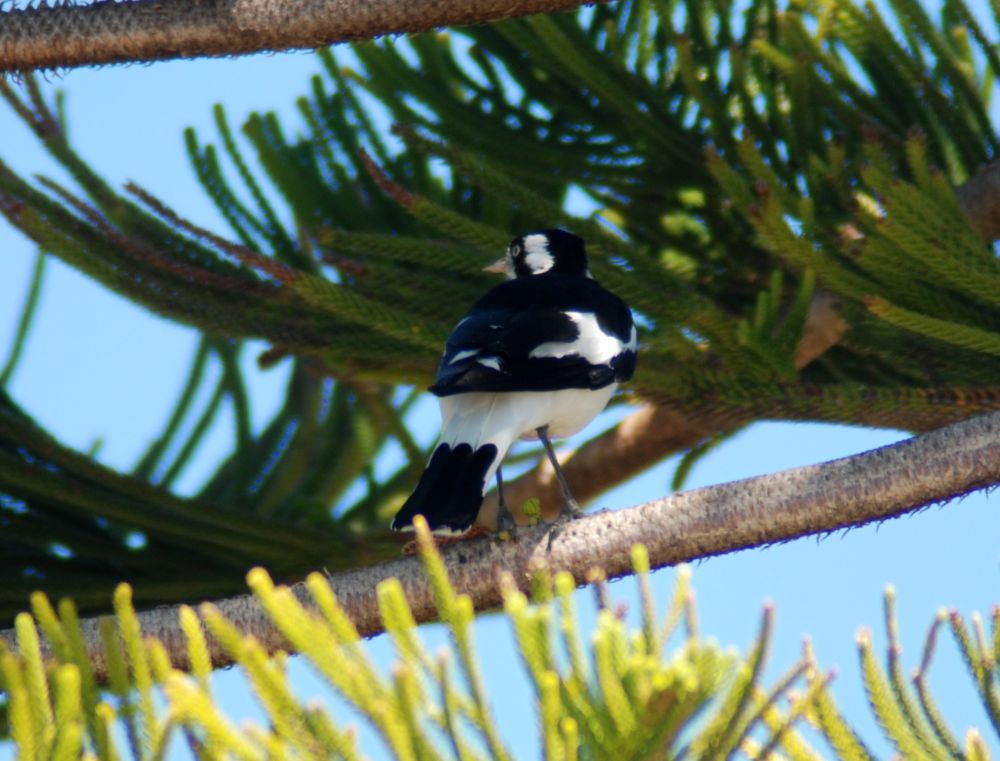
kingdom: Animalia
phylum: Chordata
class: Aves
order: Passeriformes
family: Monarchidae
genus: Grallina
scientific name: Grallina cyanoleuca
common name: Magpie-lark
